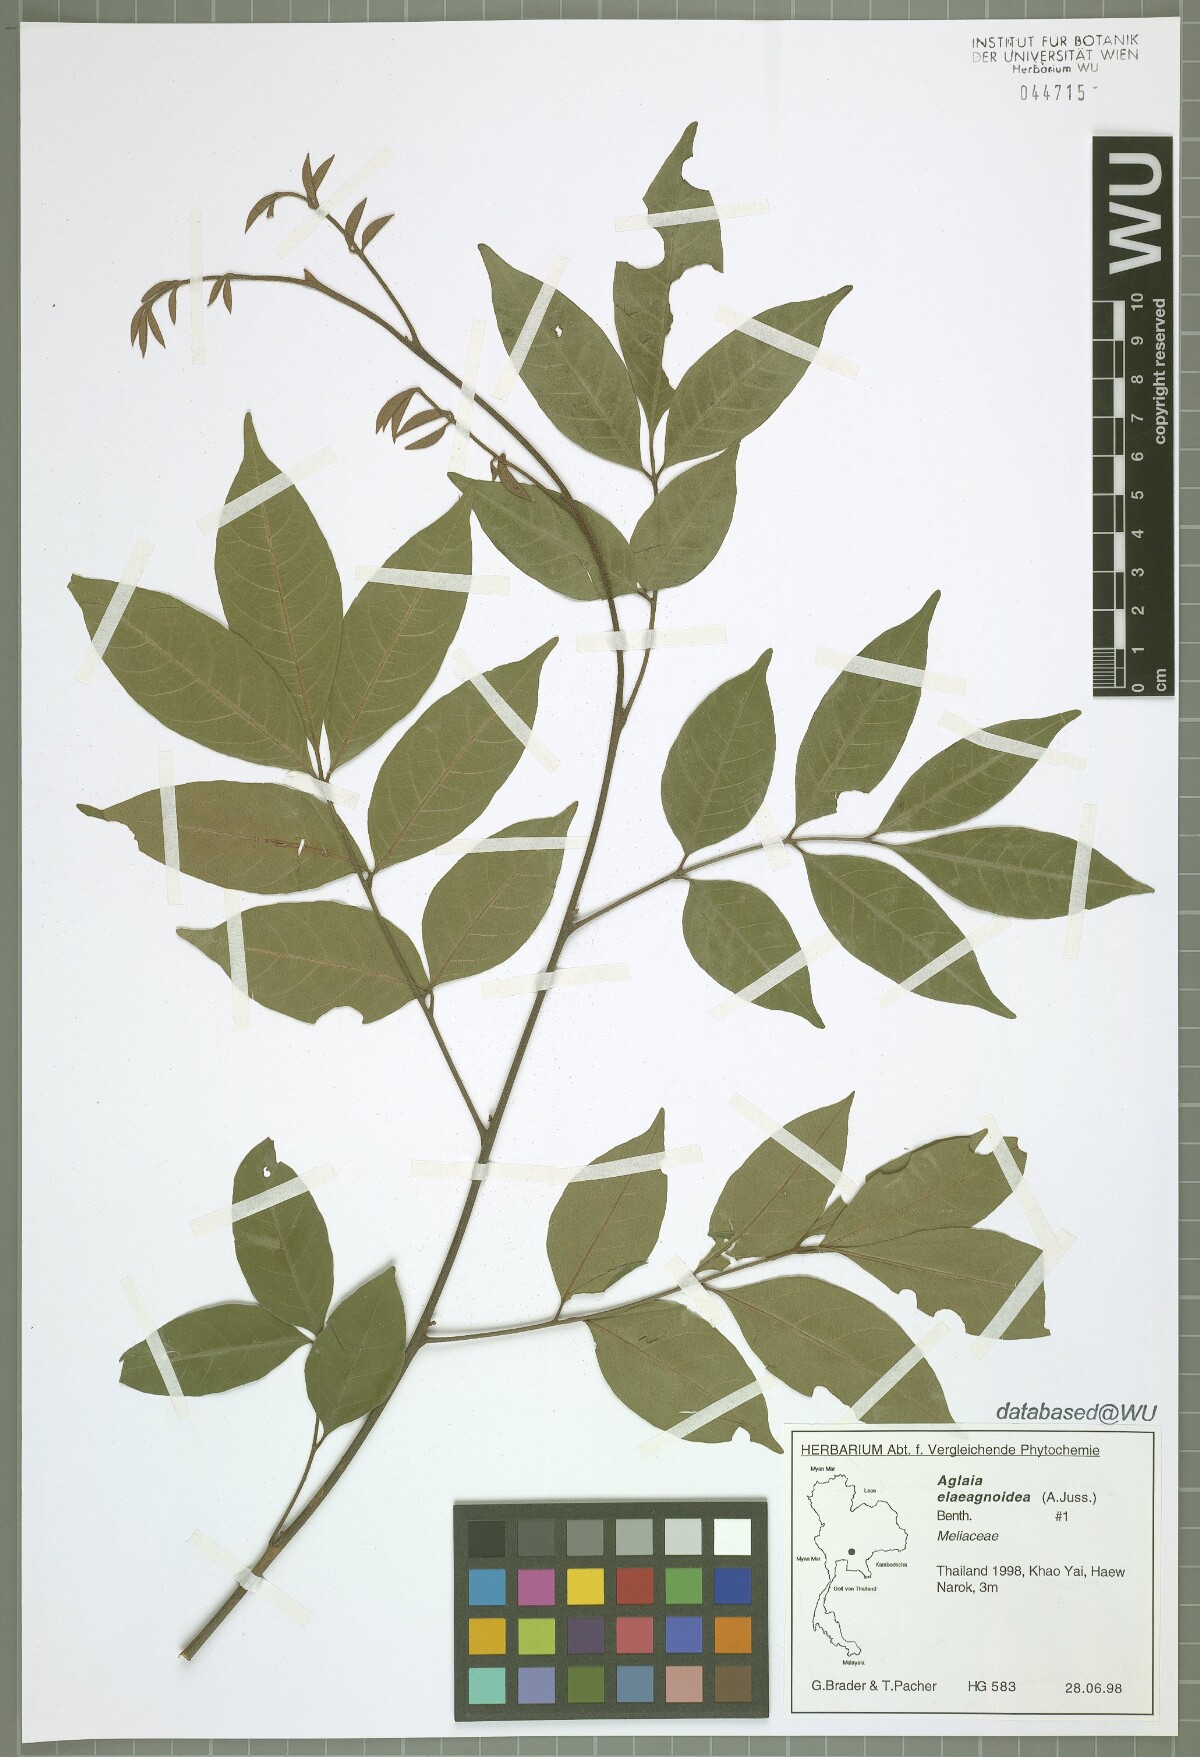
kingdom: Plantae
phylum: Tracheophyta
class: Magnoliopsida
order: Sapindales
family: Meliaceae
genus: Aglaia
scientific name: Aglaia elaeagnoidea
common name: Droopyleaf
